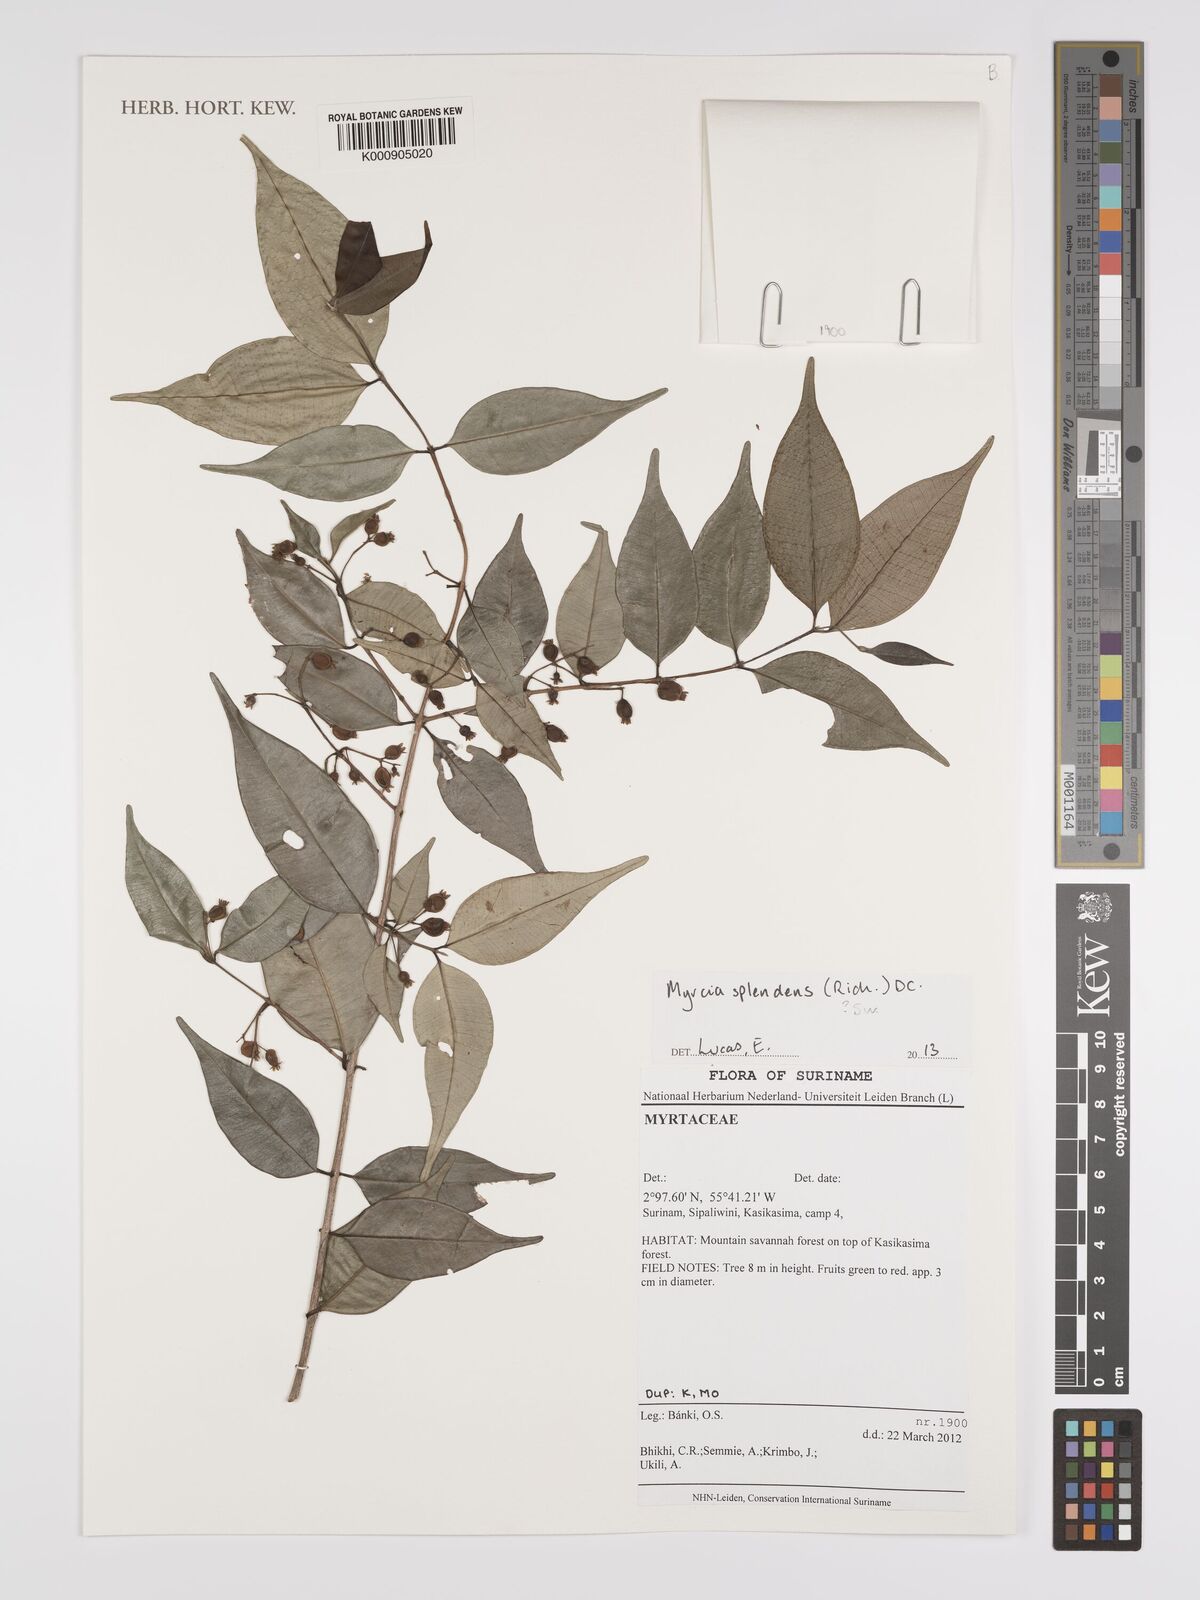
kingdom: Plantae
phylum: Tracheophyta
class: Magnoliopsida
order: Myrtales
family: Myrtaceae
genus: Myrcia
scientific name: Myrcia splendens
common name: Surinam cherry
